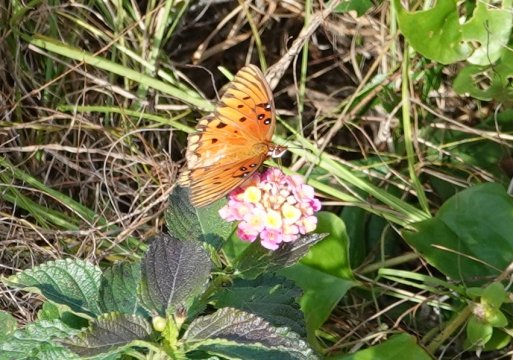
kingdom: Animalia
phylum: Arthropoda
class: Insecta
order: Lepidoptera
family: Nymphalidae
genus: Dione
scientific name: Dione vanillae
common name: Gulf Fritillary
